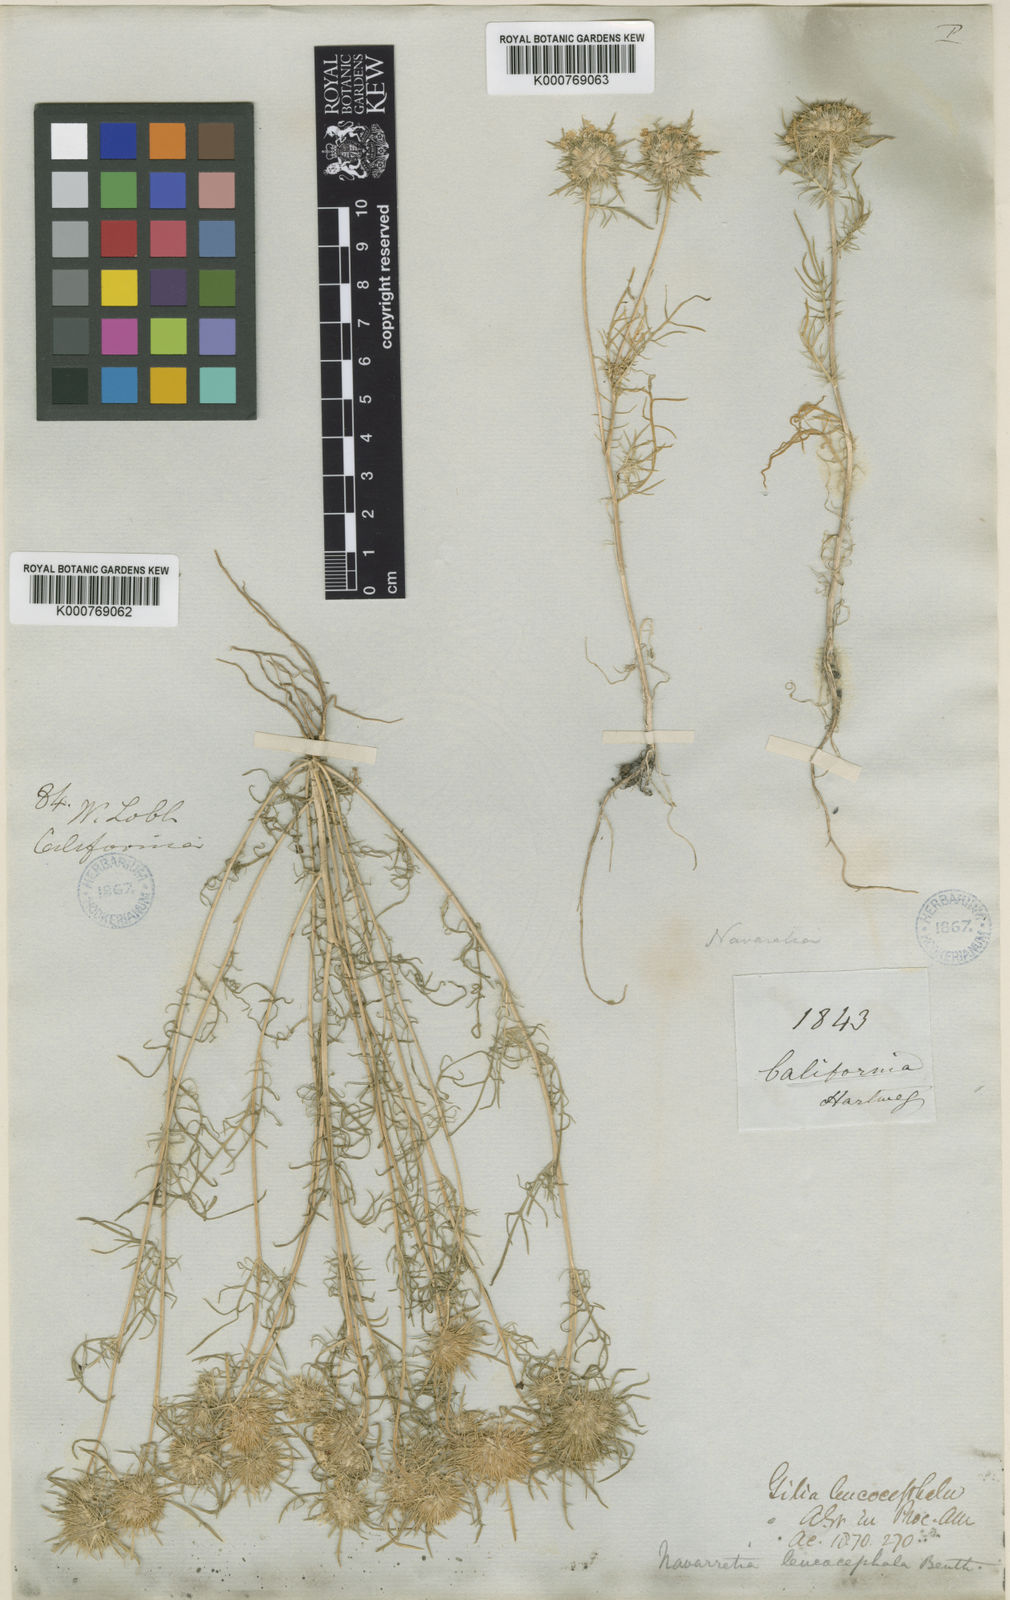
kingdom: Plantae
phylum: Tracheophyta
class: Magnoliopsida
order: Ericales
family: Polemoniaceae
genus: Navarretia
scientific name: Navarretia leucocephala
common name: White-flowered navarretia
